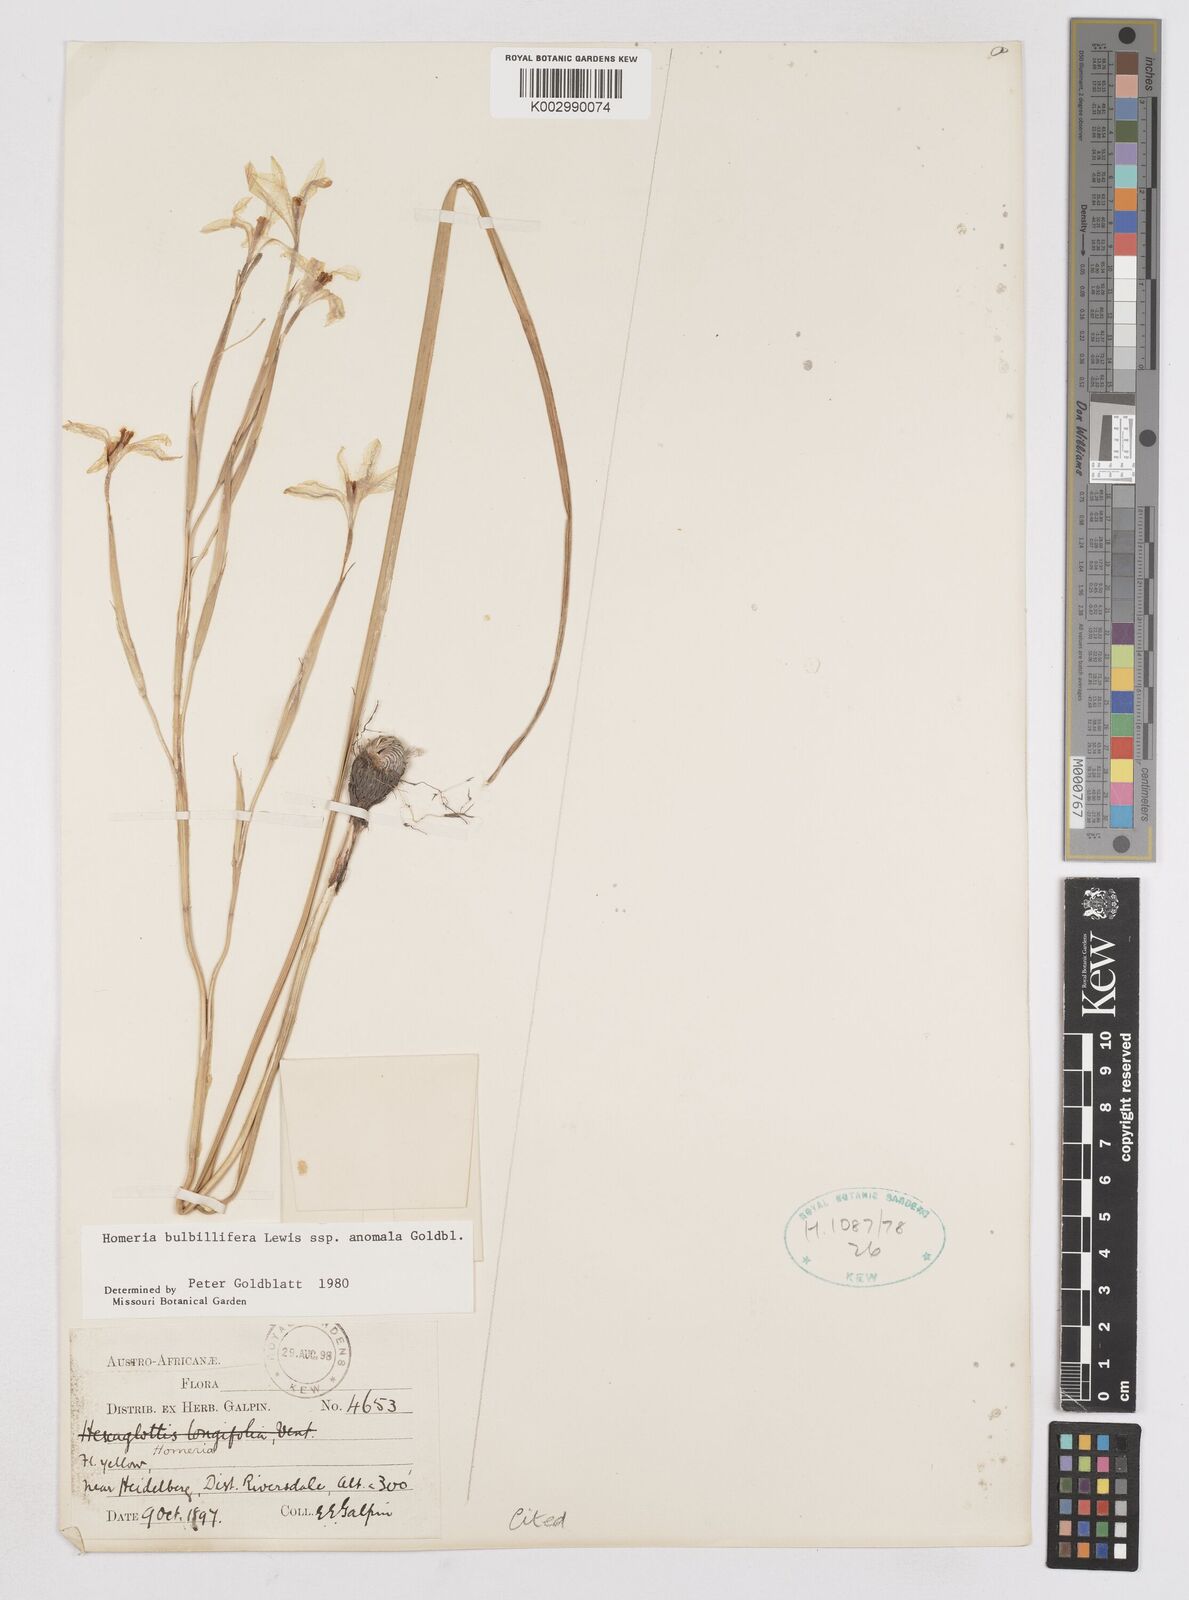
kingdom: Plantae
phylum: Tracheophyta
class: Liliopsida
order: Asparagales
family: Iridaceae
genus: Moraea
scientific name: Moraea bulbillifera
